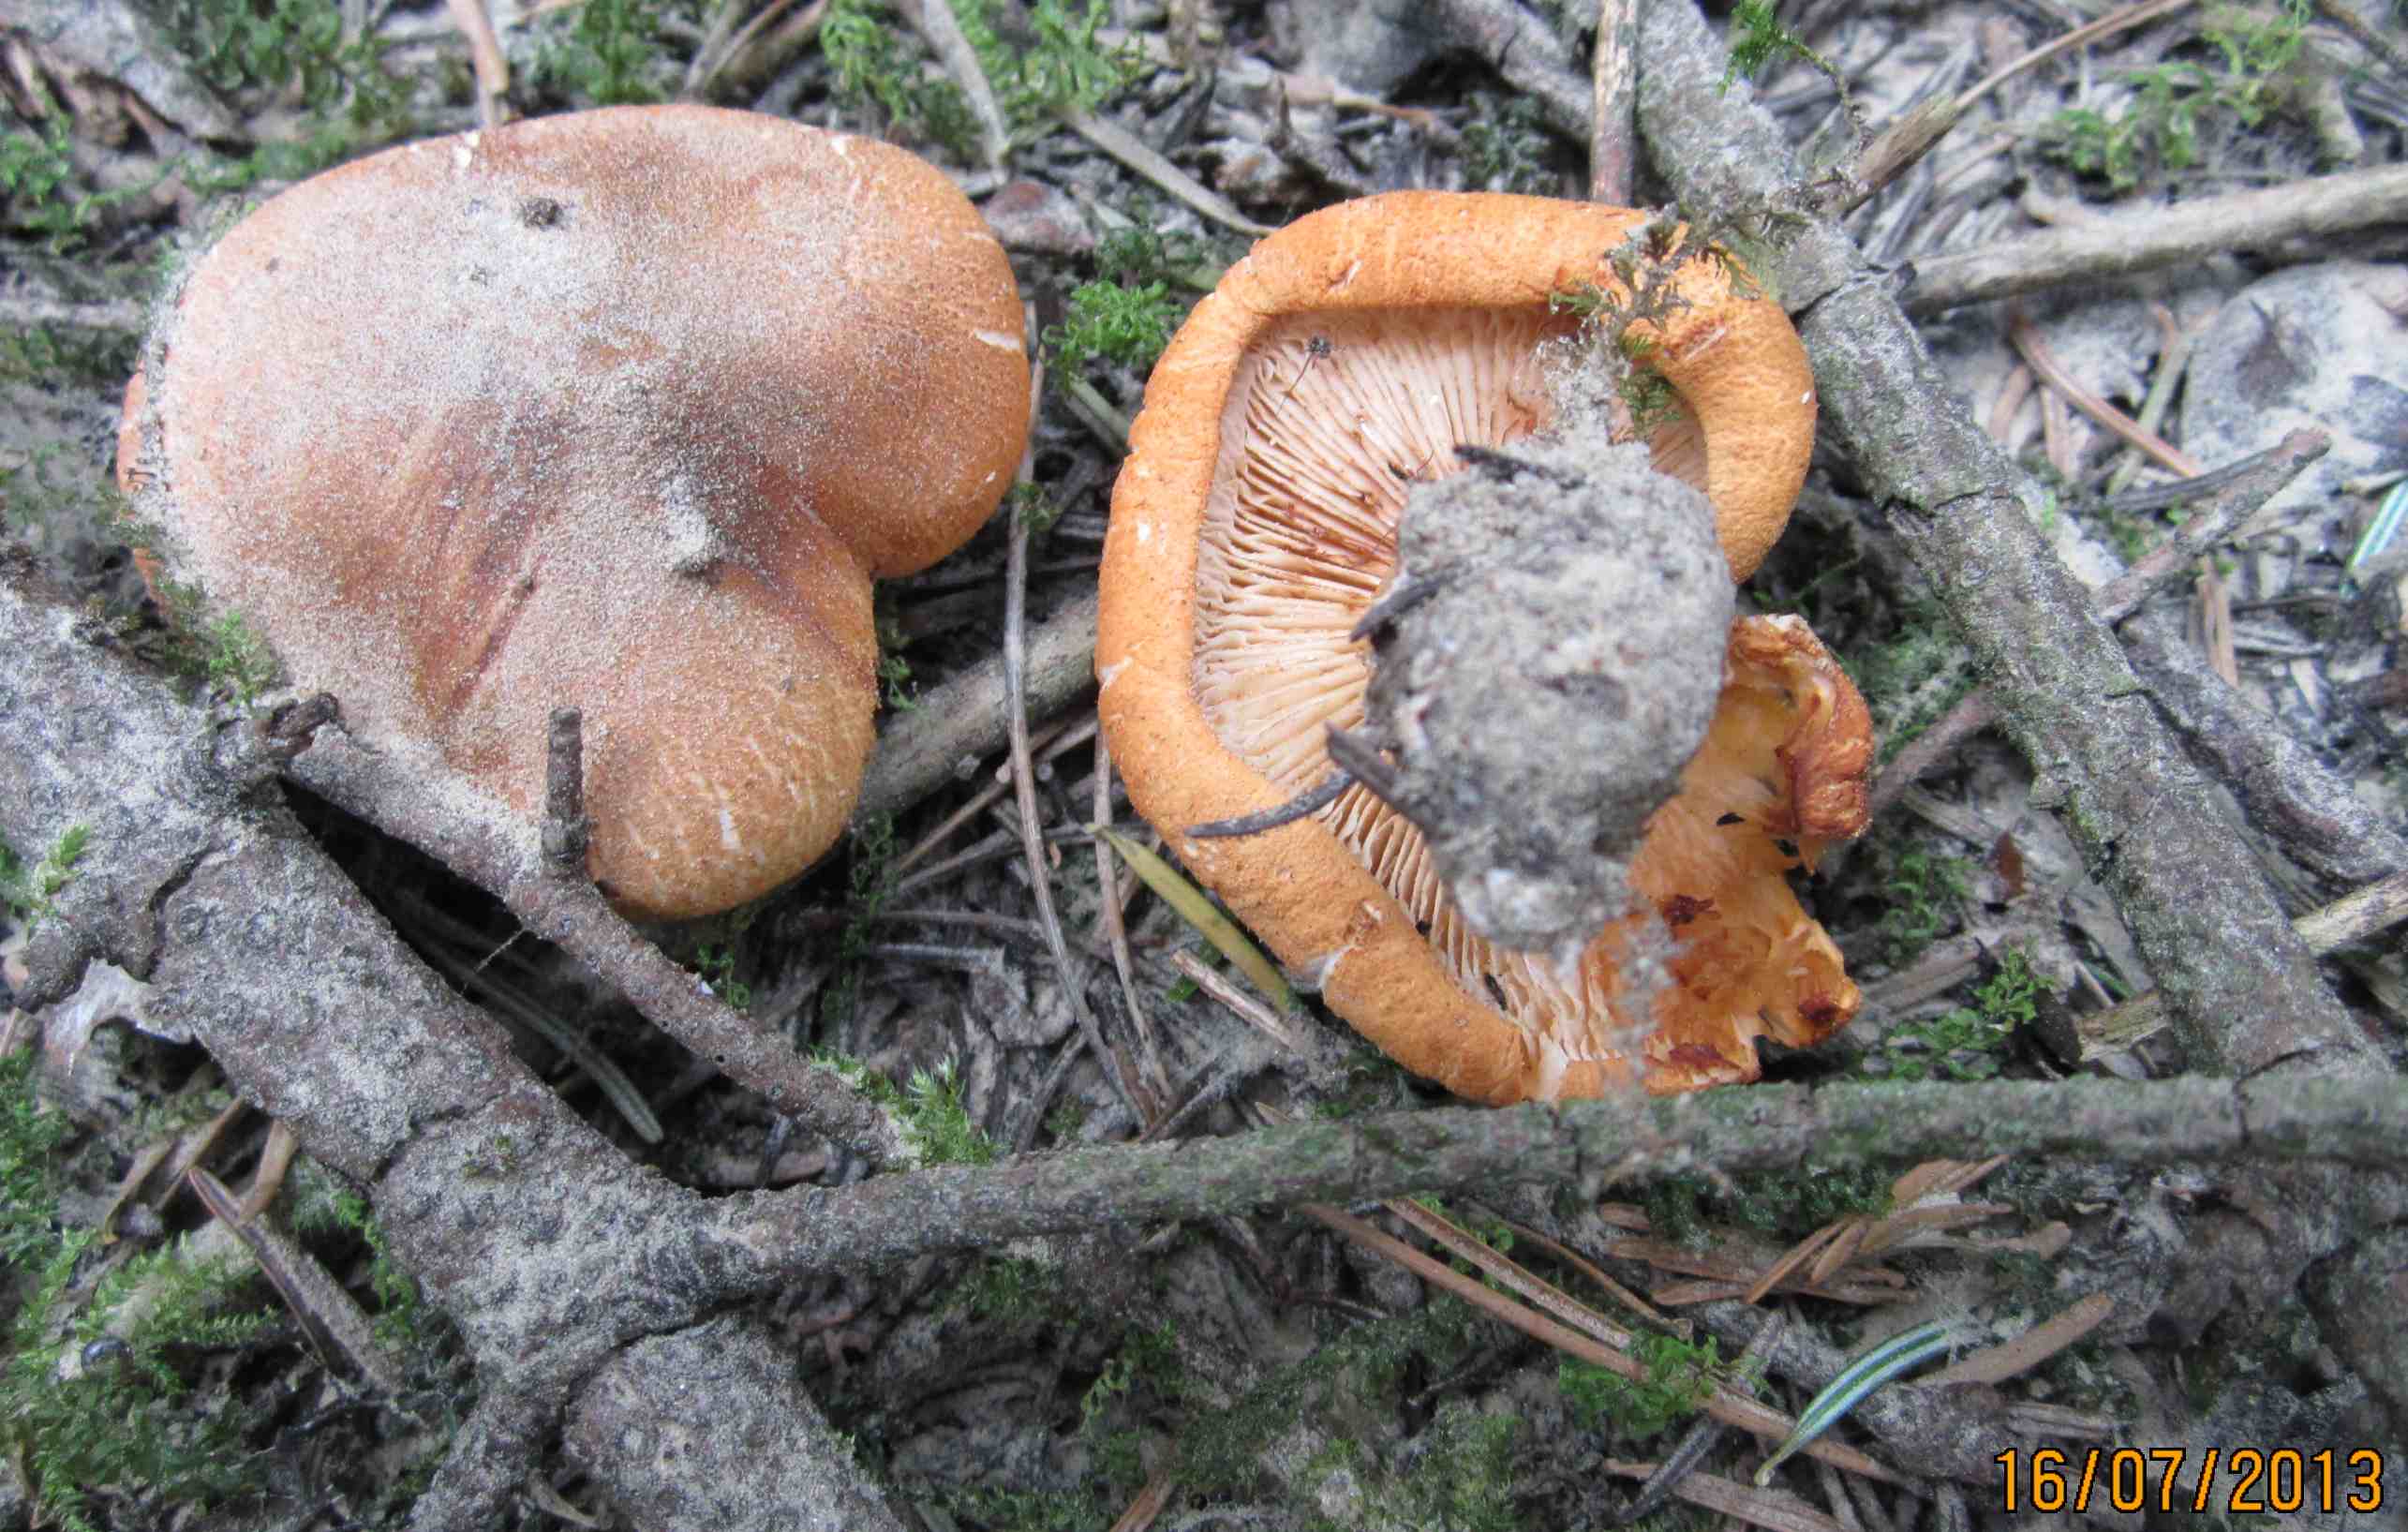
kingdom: Fungi
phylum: Basidiomycota
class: Agaricomycetes
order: Agaricales
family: Tricholomataceae
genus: Tricholoma
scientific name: Tricholoma aurantium
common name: orangegul ridderhat
